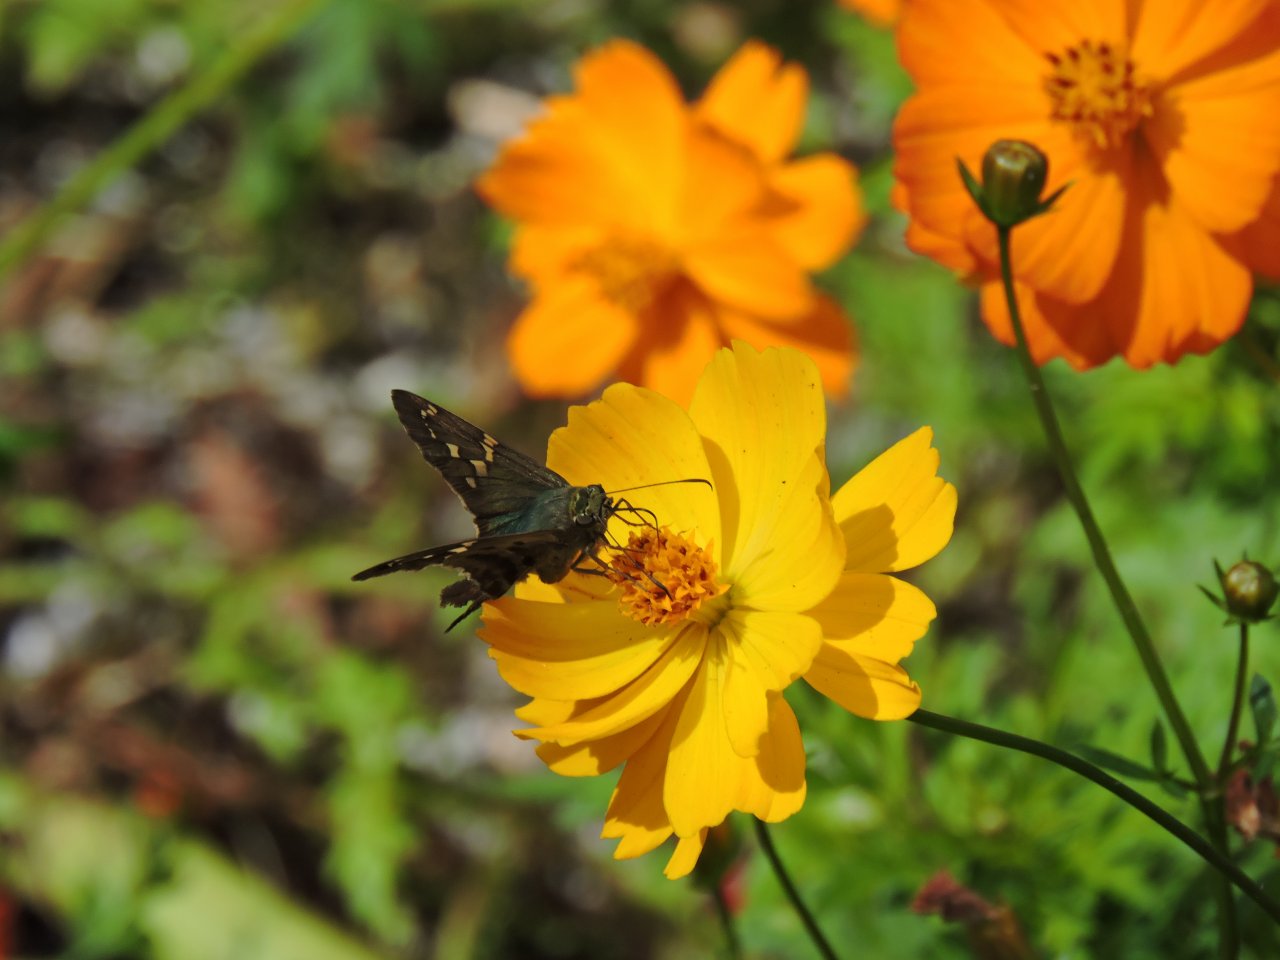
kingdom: Animalia
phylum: Arthropoda
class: Insecta
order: Lepidoptera
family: Hesperiidae
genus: Urbanus
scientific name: Urbanus proteus
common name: Long-tailed Skipper
